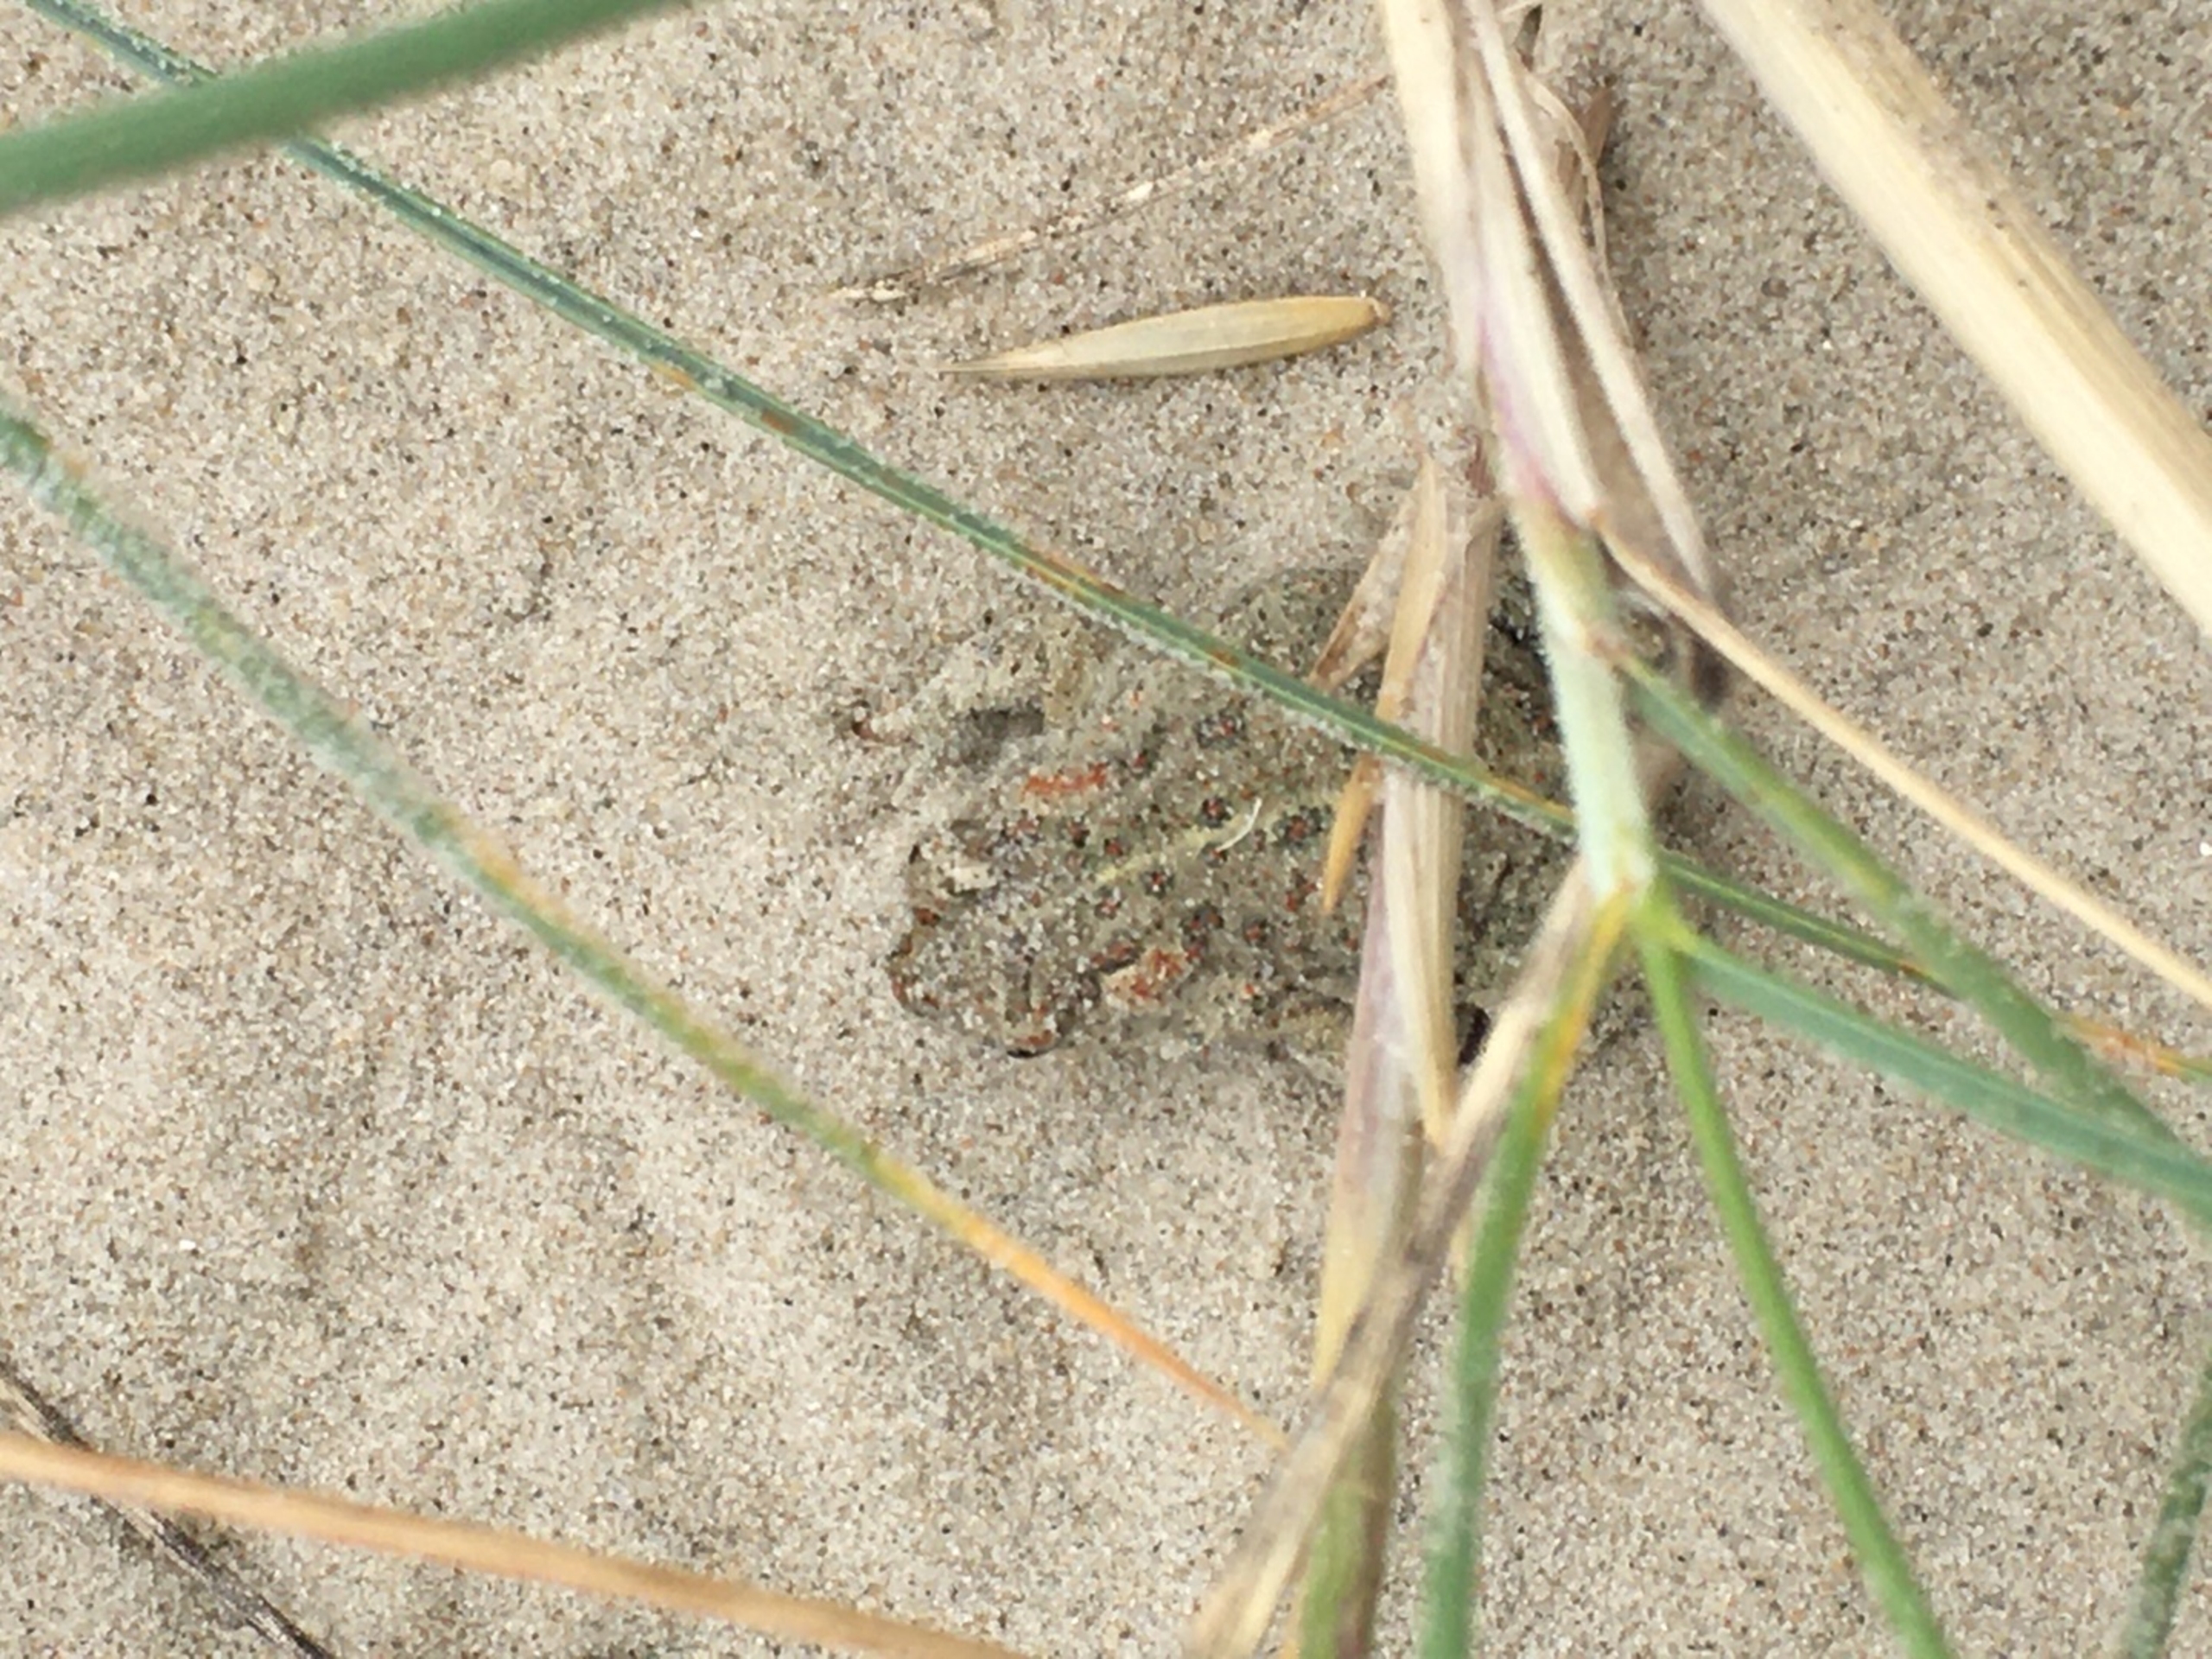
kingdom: Animalia
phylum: Chordata
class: Amphibia
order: Anura
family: Bufonidae
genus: Epidalea
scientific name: Epidalea calamita
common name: Strandtudse
